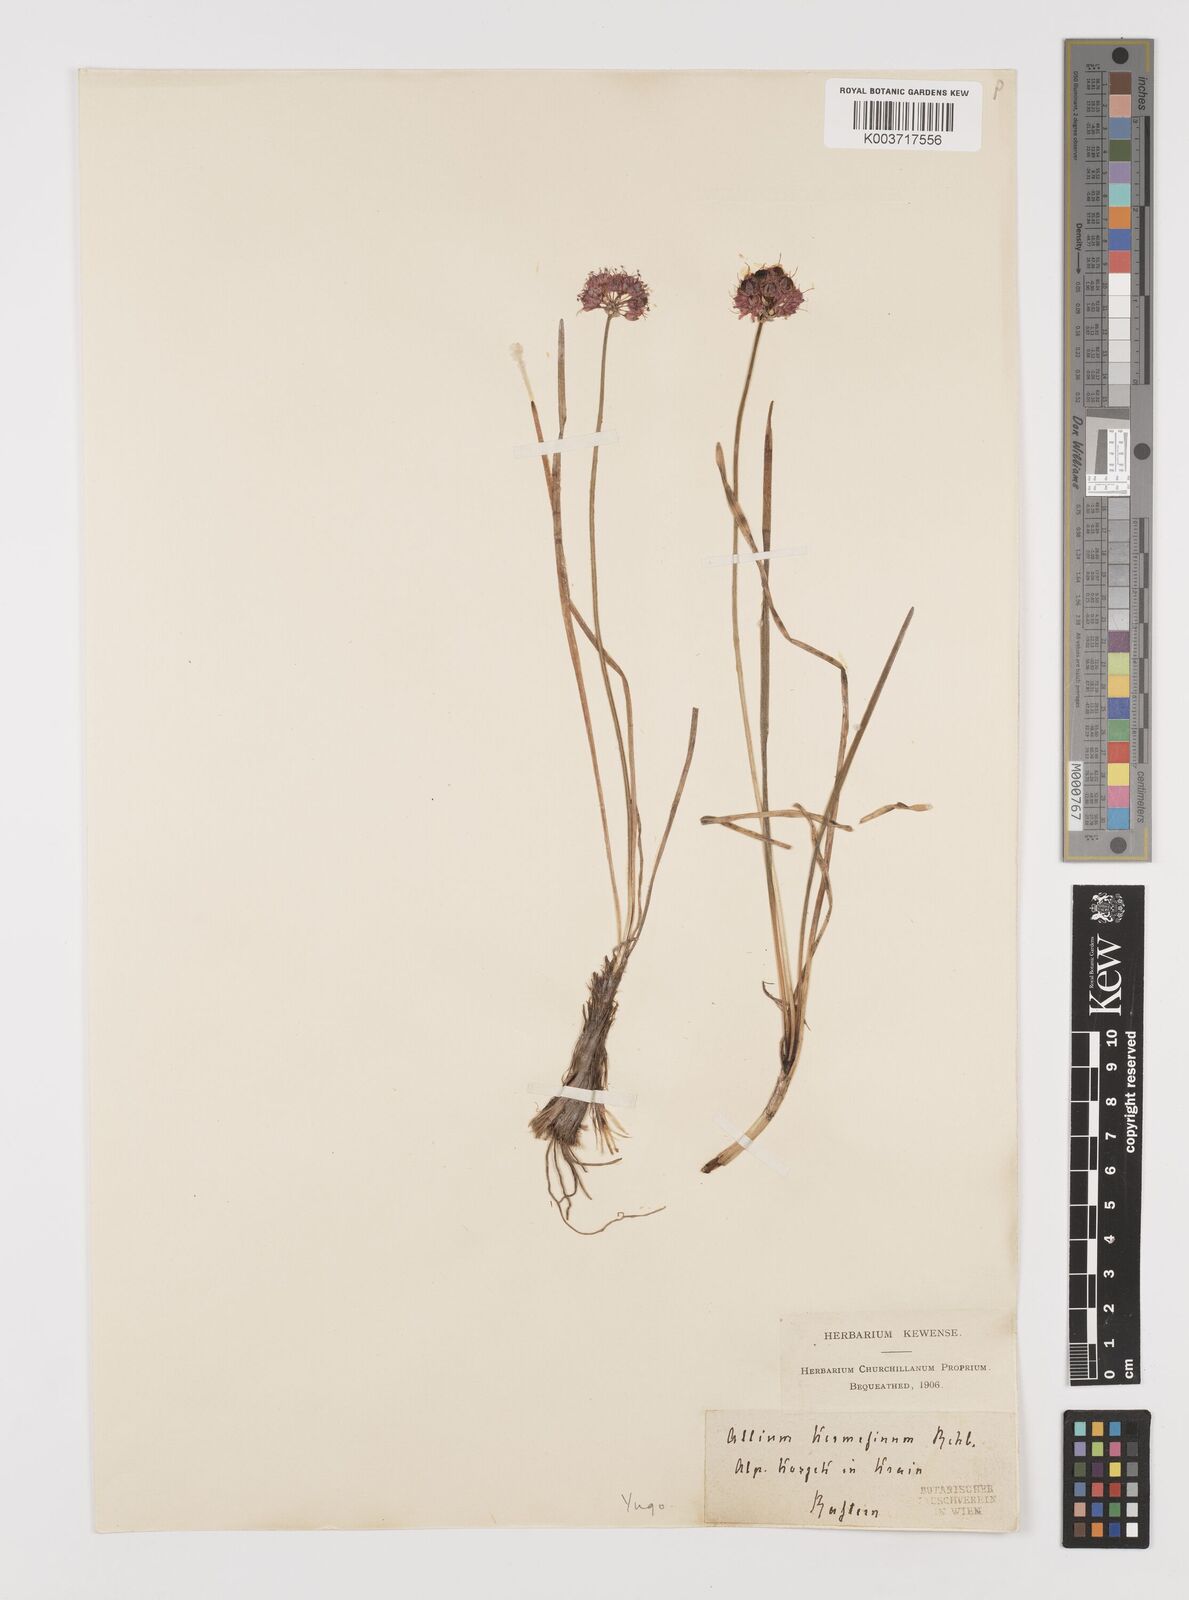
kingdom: Plantae
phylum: Tracheophyta
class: Liliopsida
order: Asparagales
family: Amaryllidaceae
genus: Allium
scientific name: Allium
